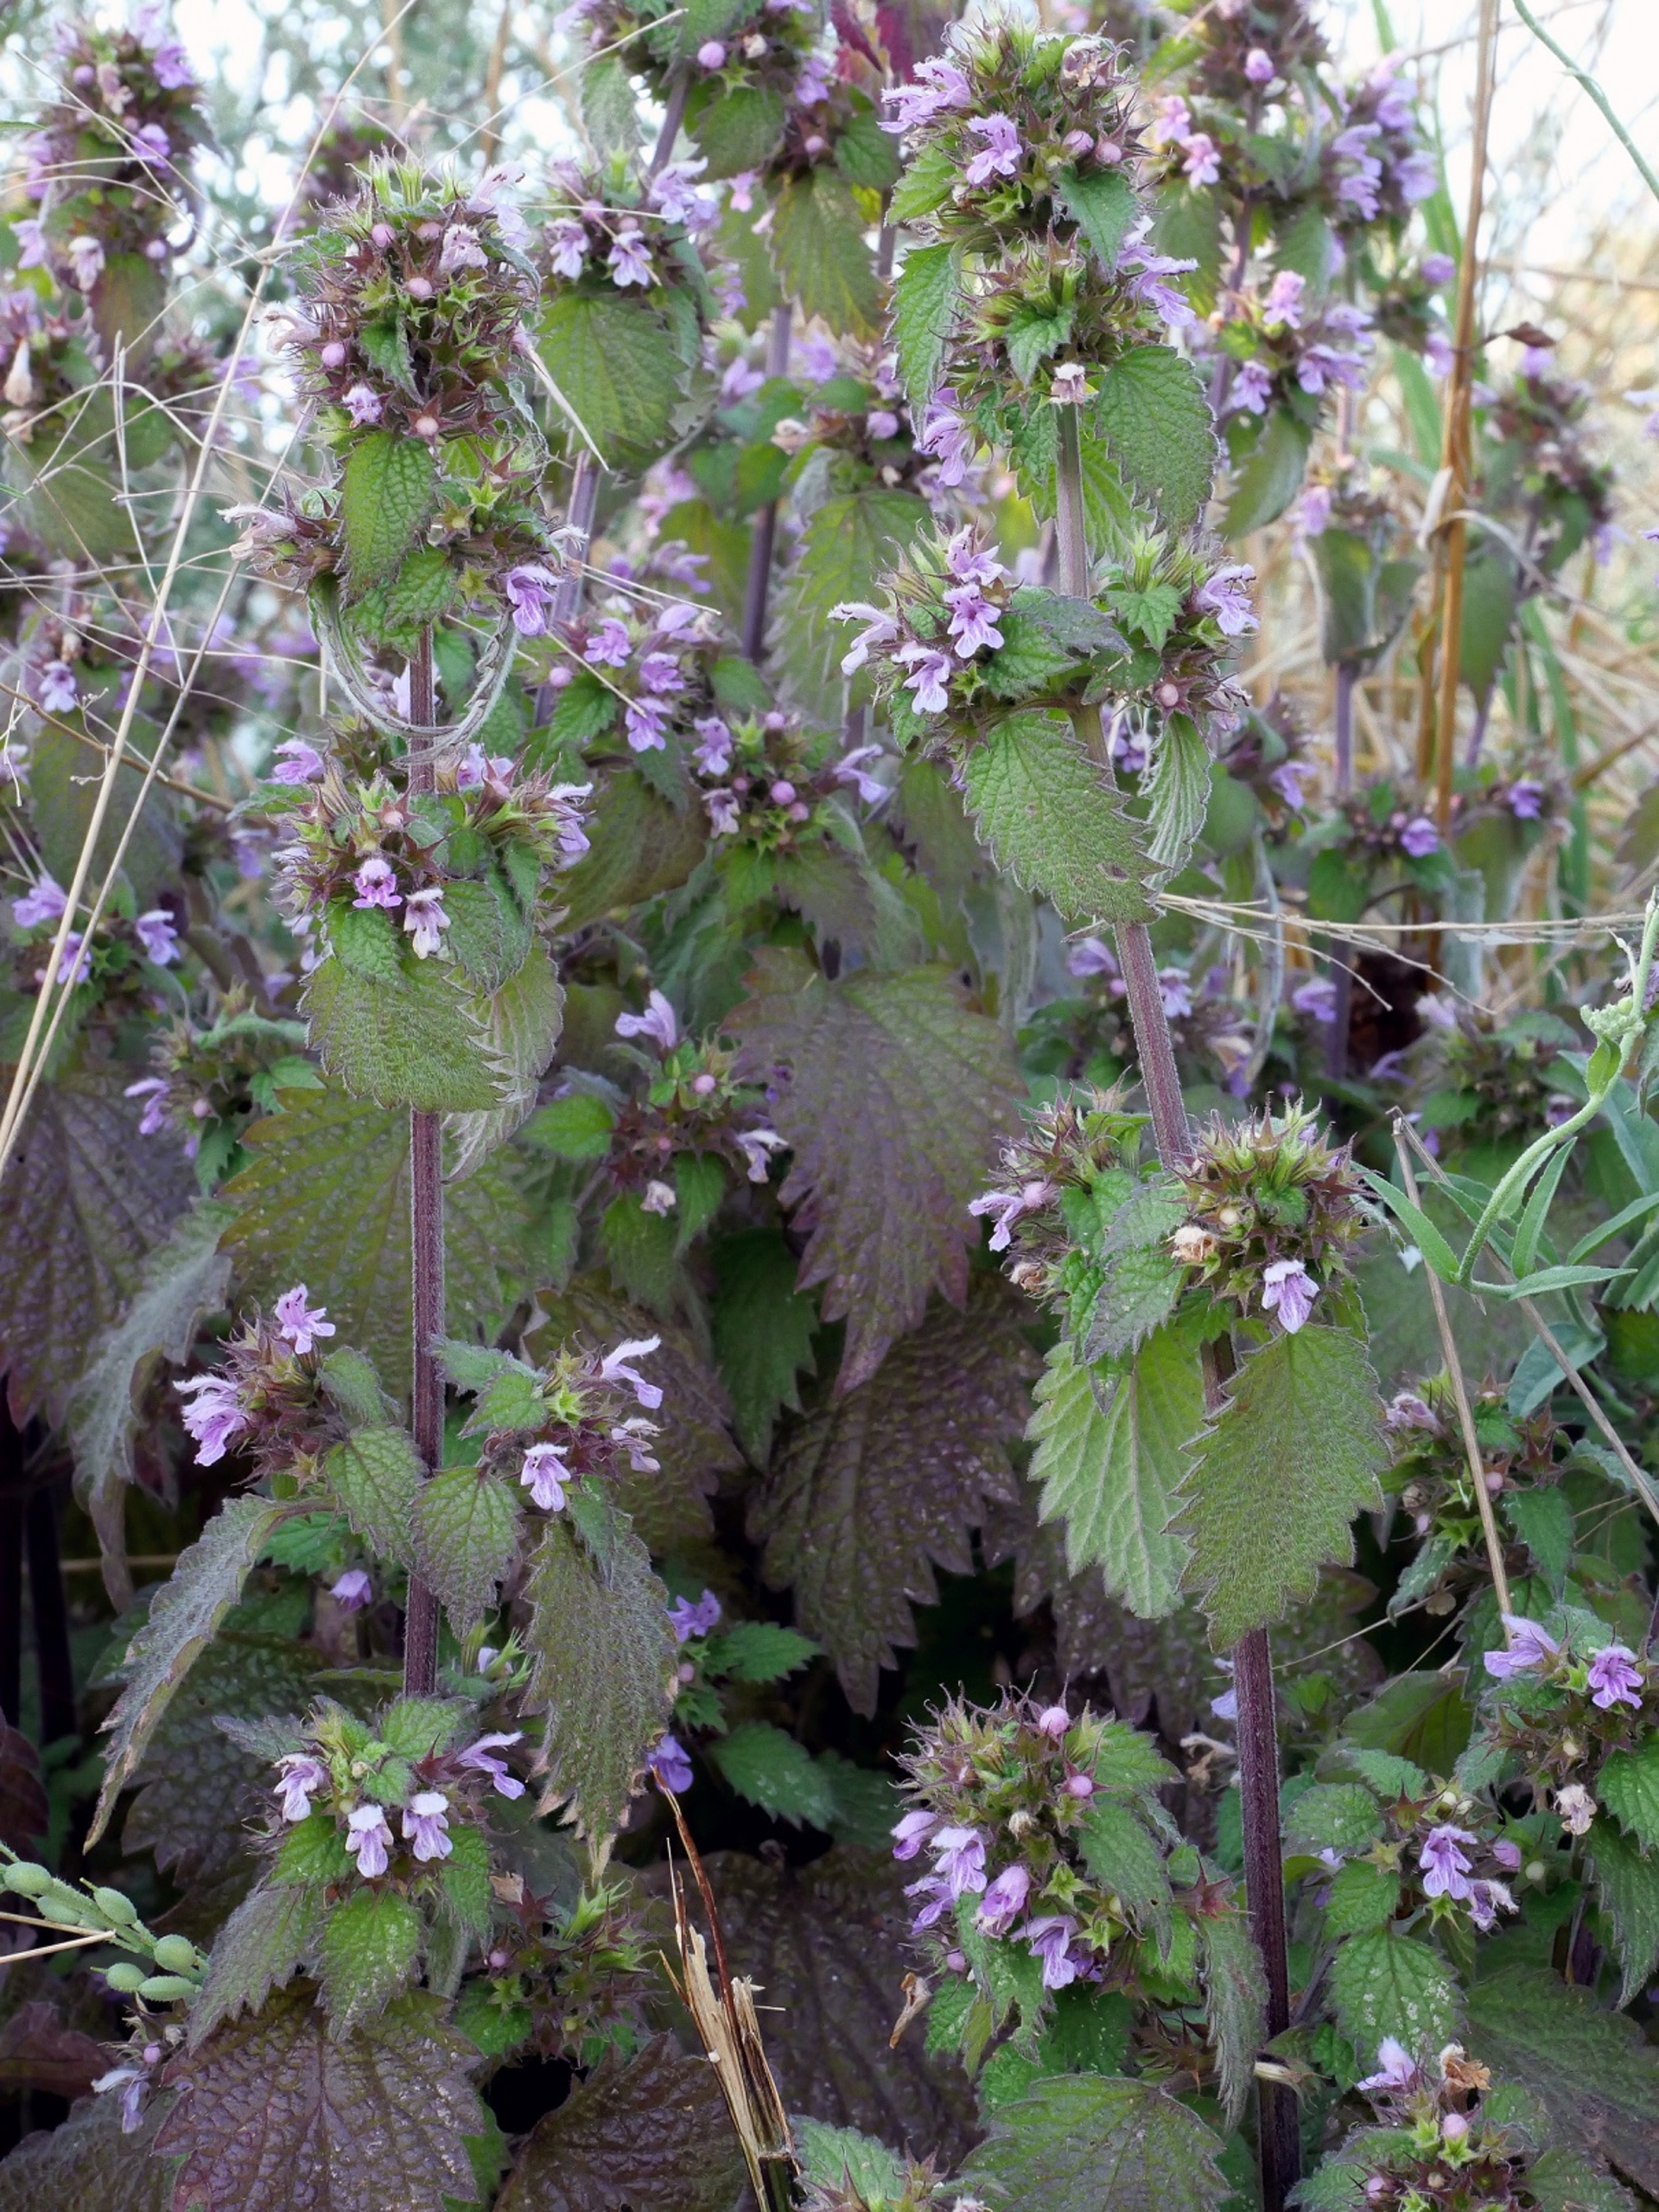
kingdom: Plantae
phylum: Tracheophyta
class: Magnoliopsida
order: Lamiales
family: Lamiaceae
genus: Ballota
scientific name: Ballota nigra
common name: Rød tandbæger
